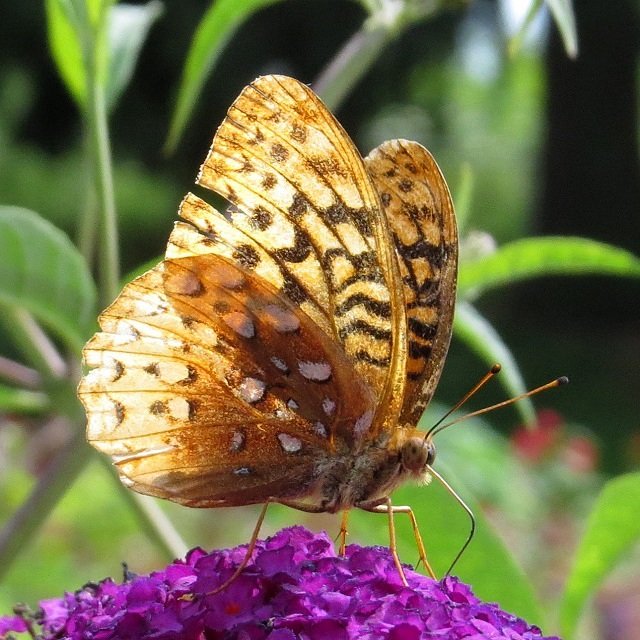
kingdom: Animalia
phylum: Arthropoda
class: Insecta
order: Lepidoptera
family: Nymphalidae
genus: Speyeria
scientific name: Speyeria cybele
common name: Great Spangled Fritillary
